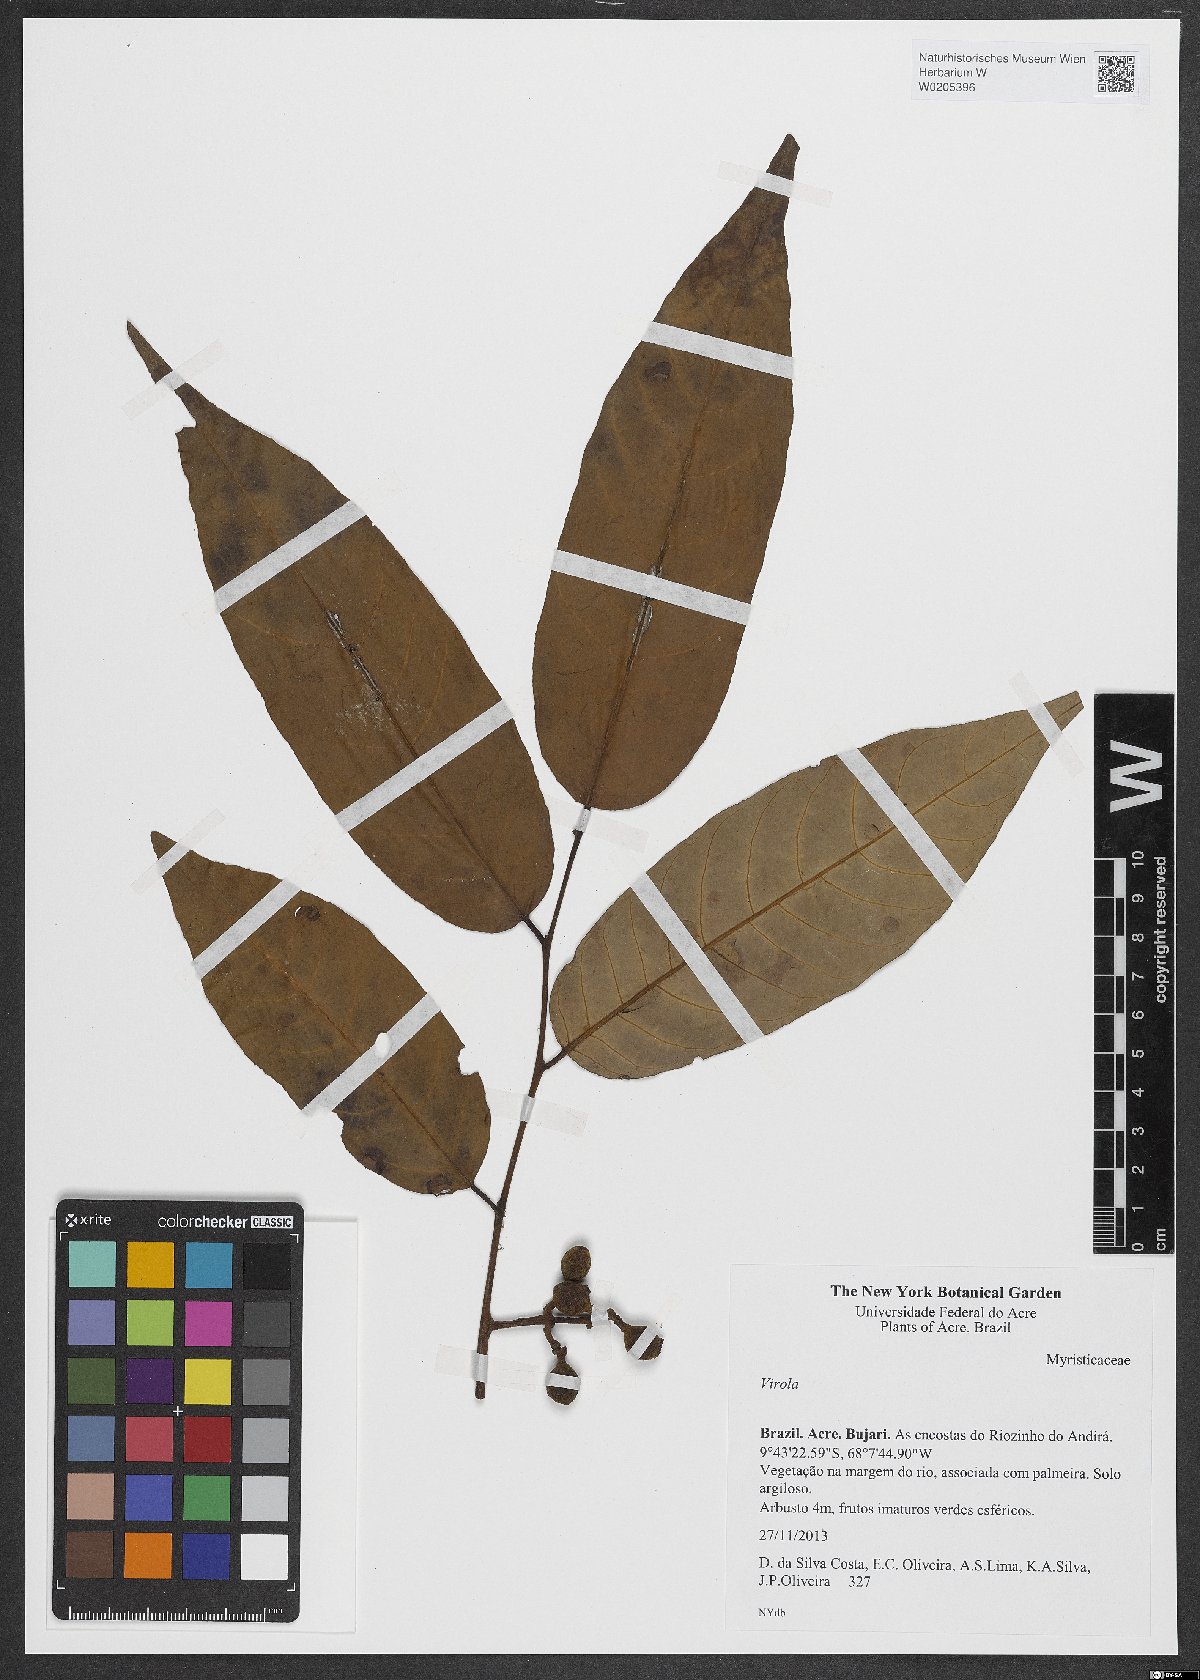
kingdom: Plantae
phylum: Tracheophyta
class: Magnoliopsida
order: Magnoliales
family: Myristicaceae
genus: Virola
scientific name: Virola
